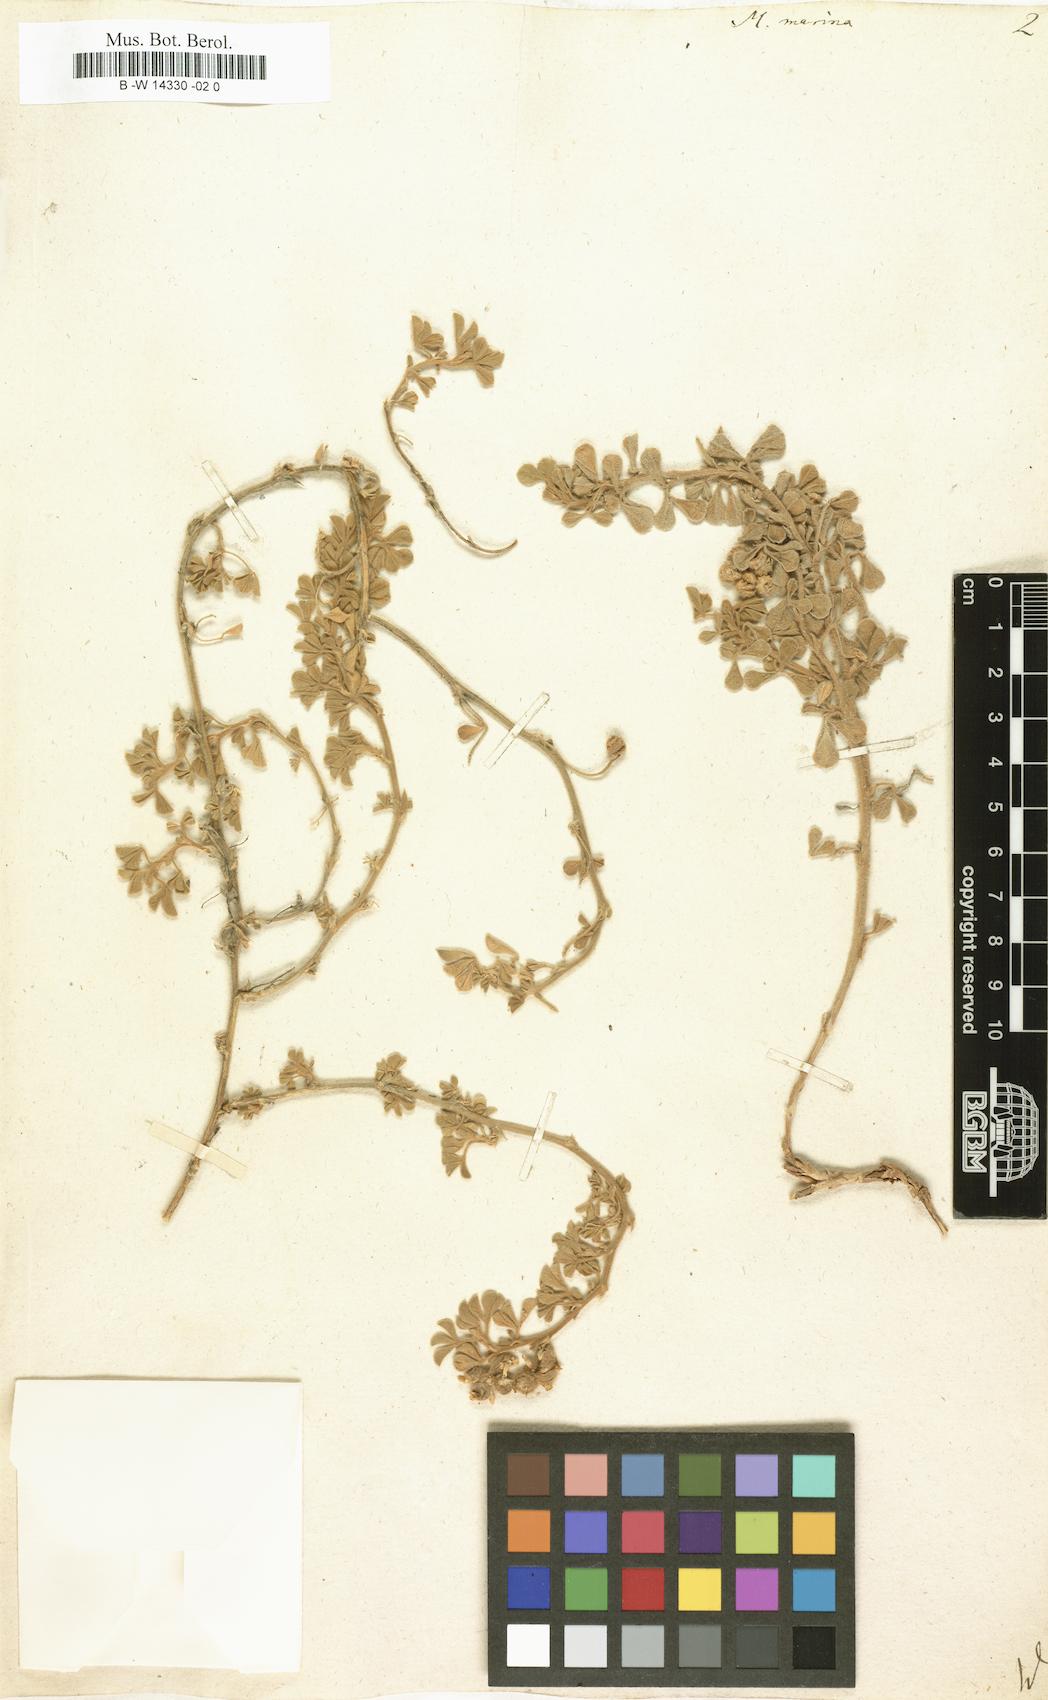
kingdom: Plantae
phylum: Tracheophyta
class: Magnoliopsida
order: Fabales
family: Fabaceae
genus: Medicago
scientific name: Medicago marina
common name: Sea medick
